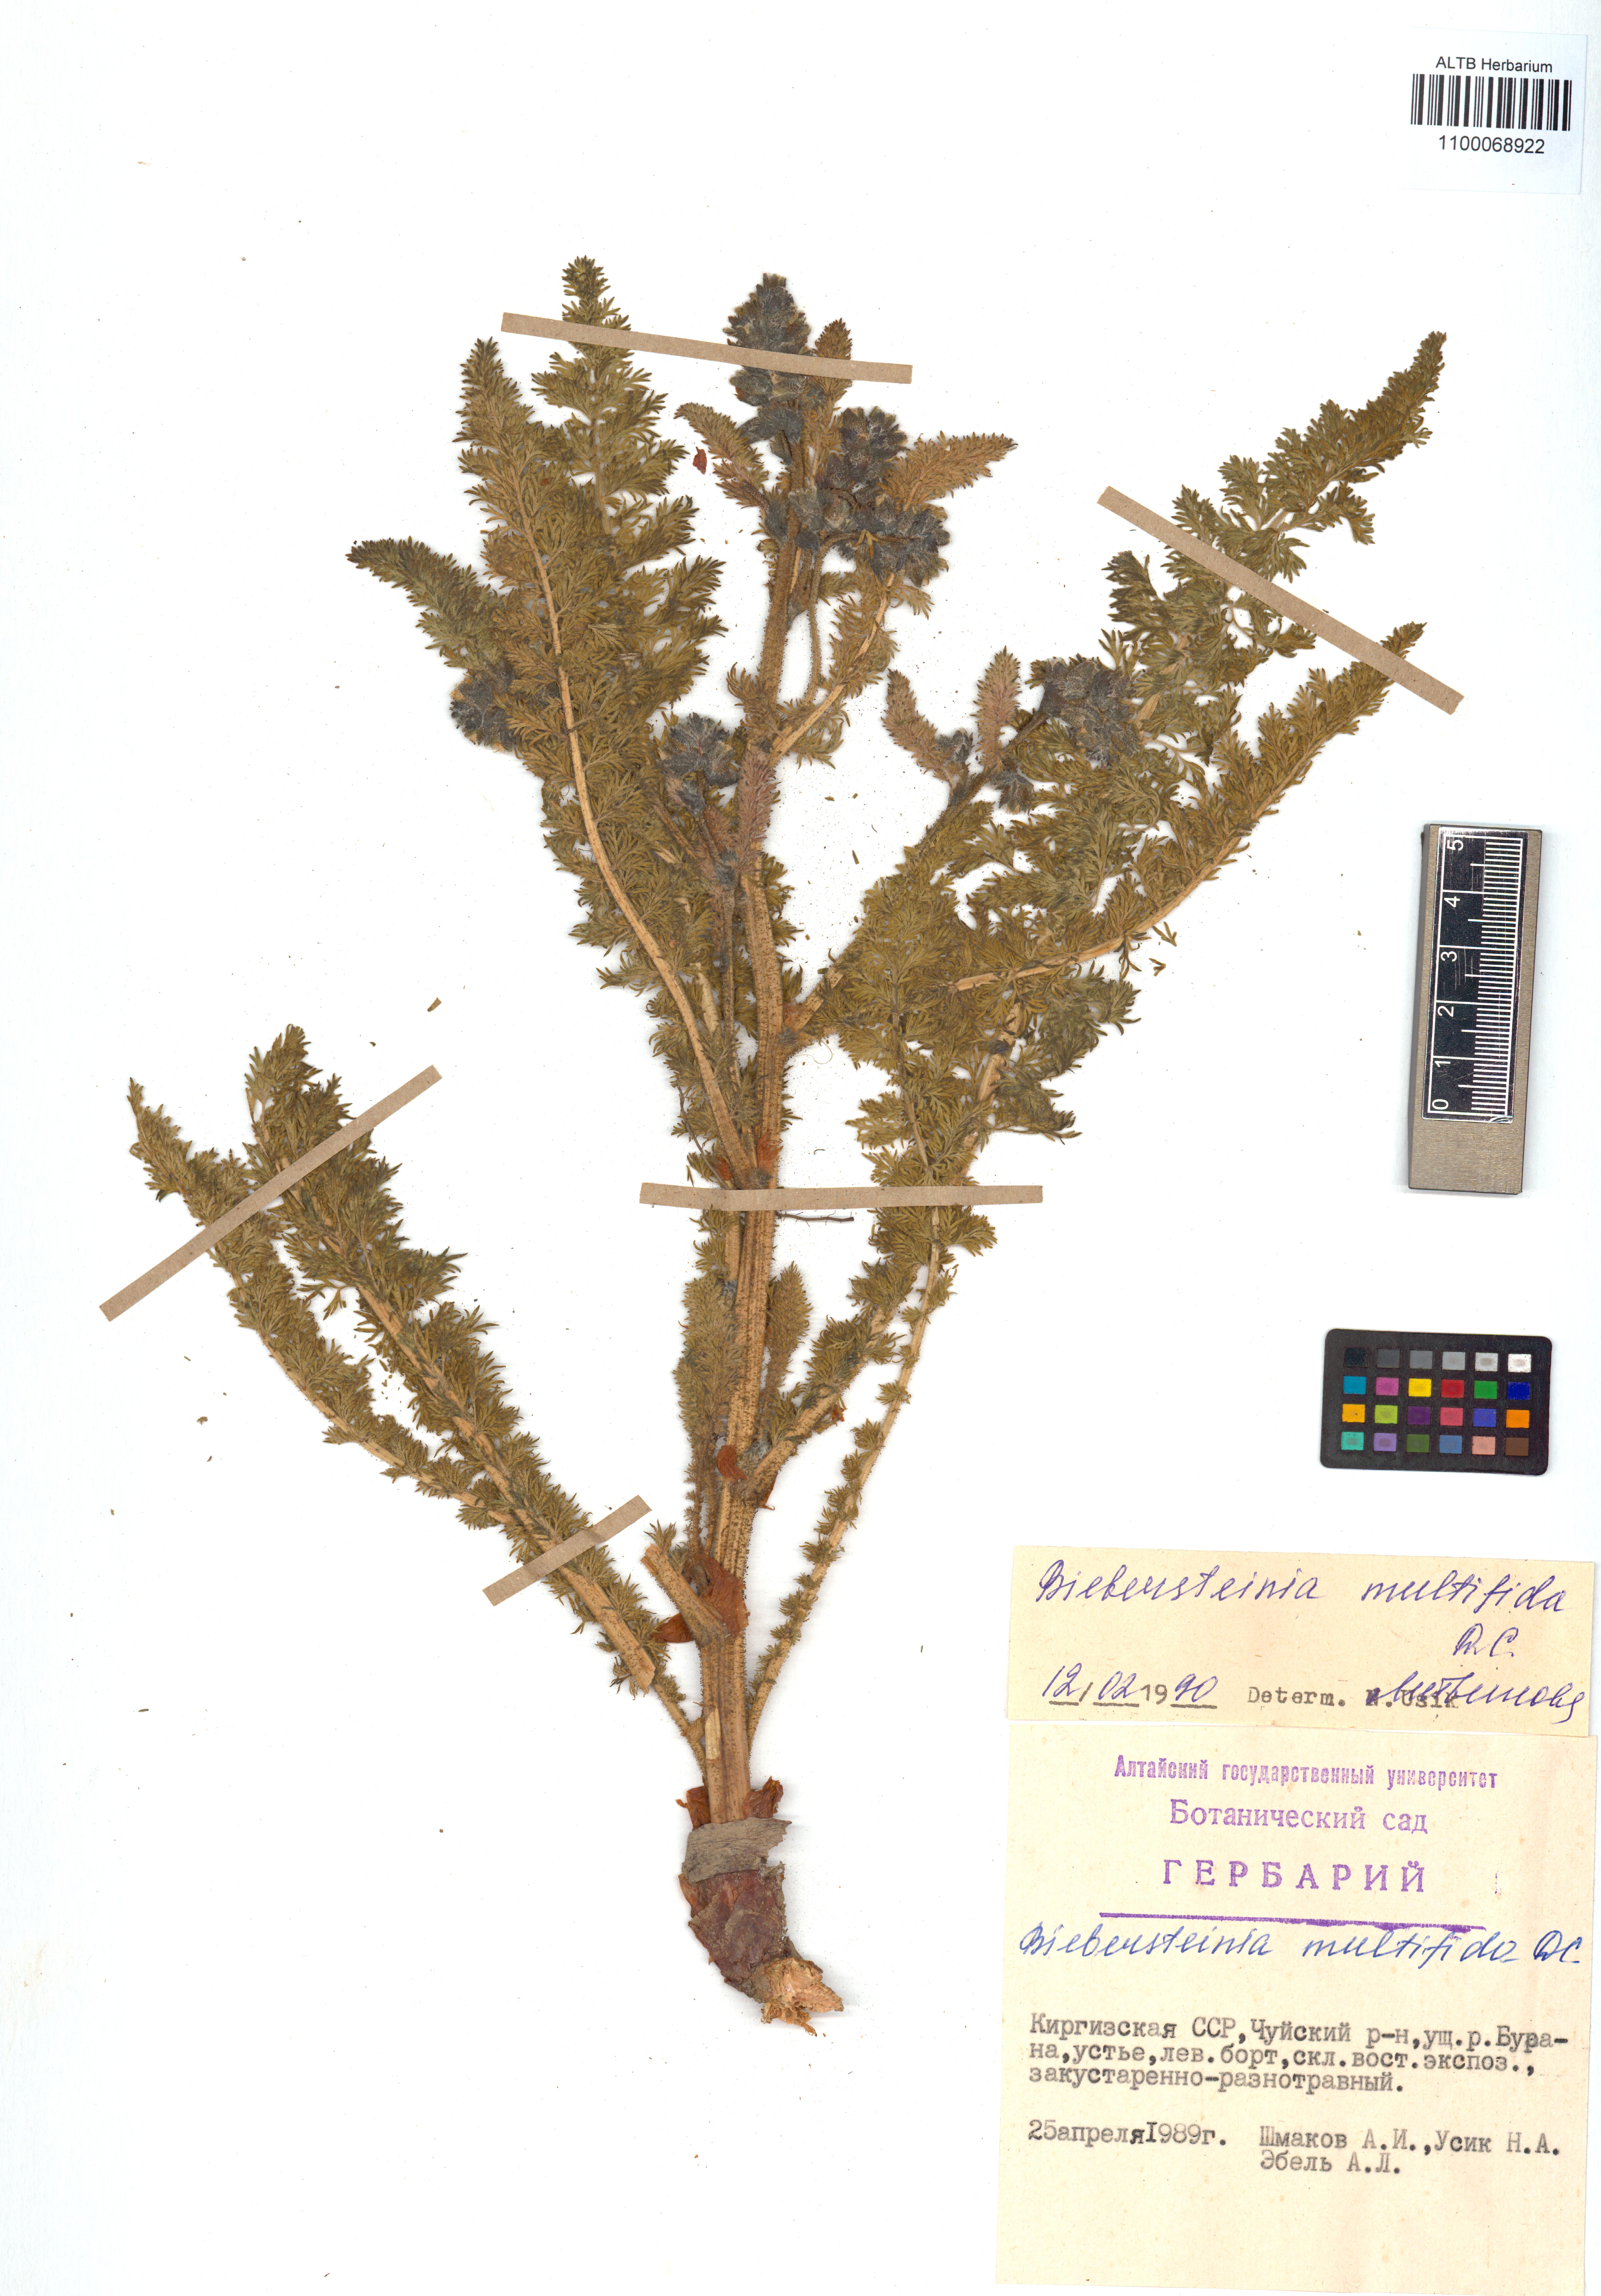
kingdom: Plantae
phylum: Tracheophyta
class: Magnoliopsida
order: Sapindales
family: Biebersteiniaceae
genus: Biebersteinia
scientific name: Biebersteinia multifida
